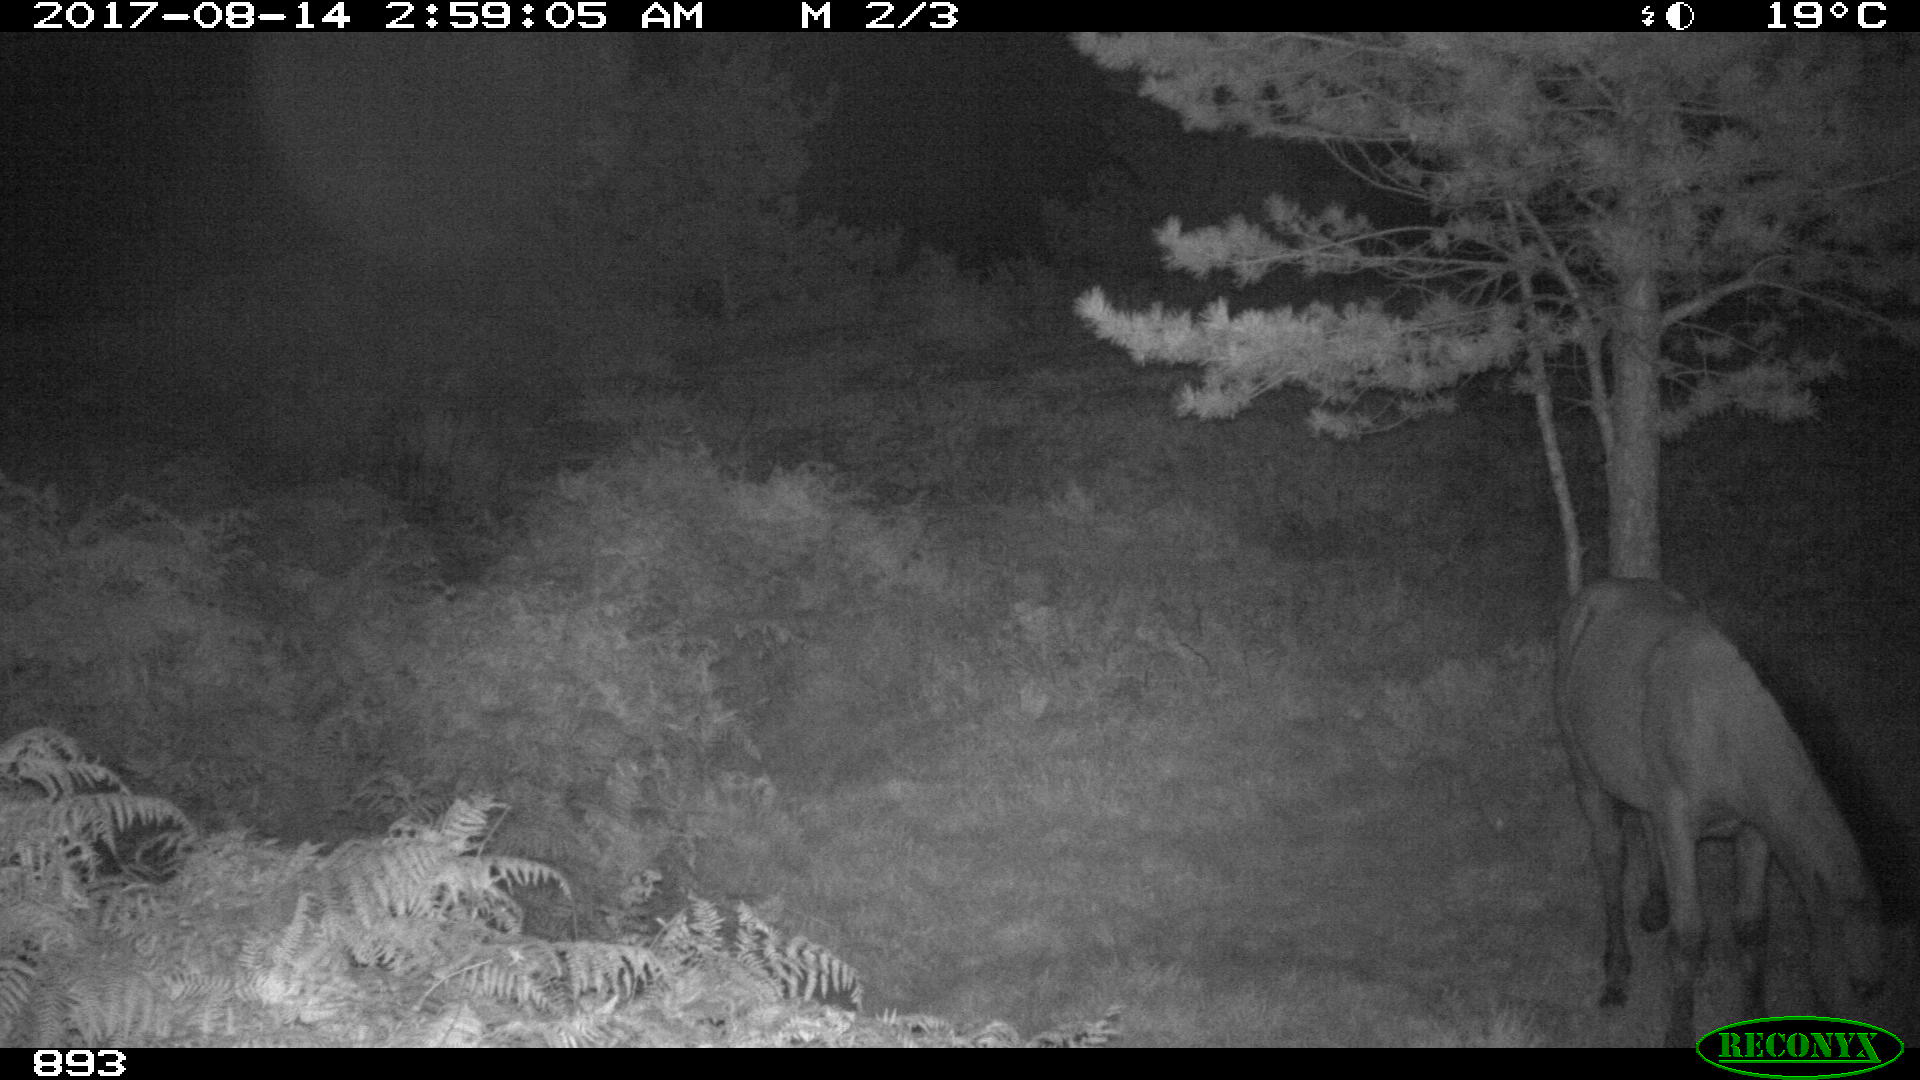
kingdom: Animalia
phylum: Chordata
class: Mammalia
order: Perissodactyla
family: Equidae
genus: Equus
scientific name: Equus caballus
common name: Horse
